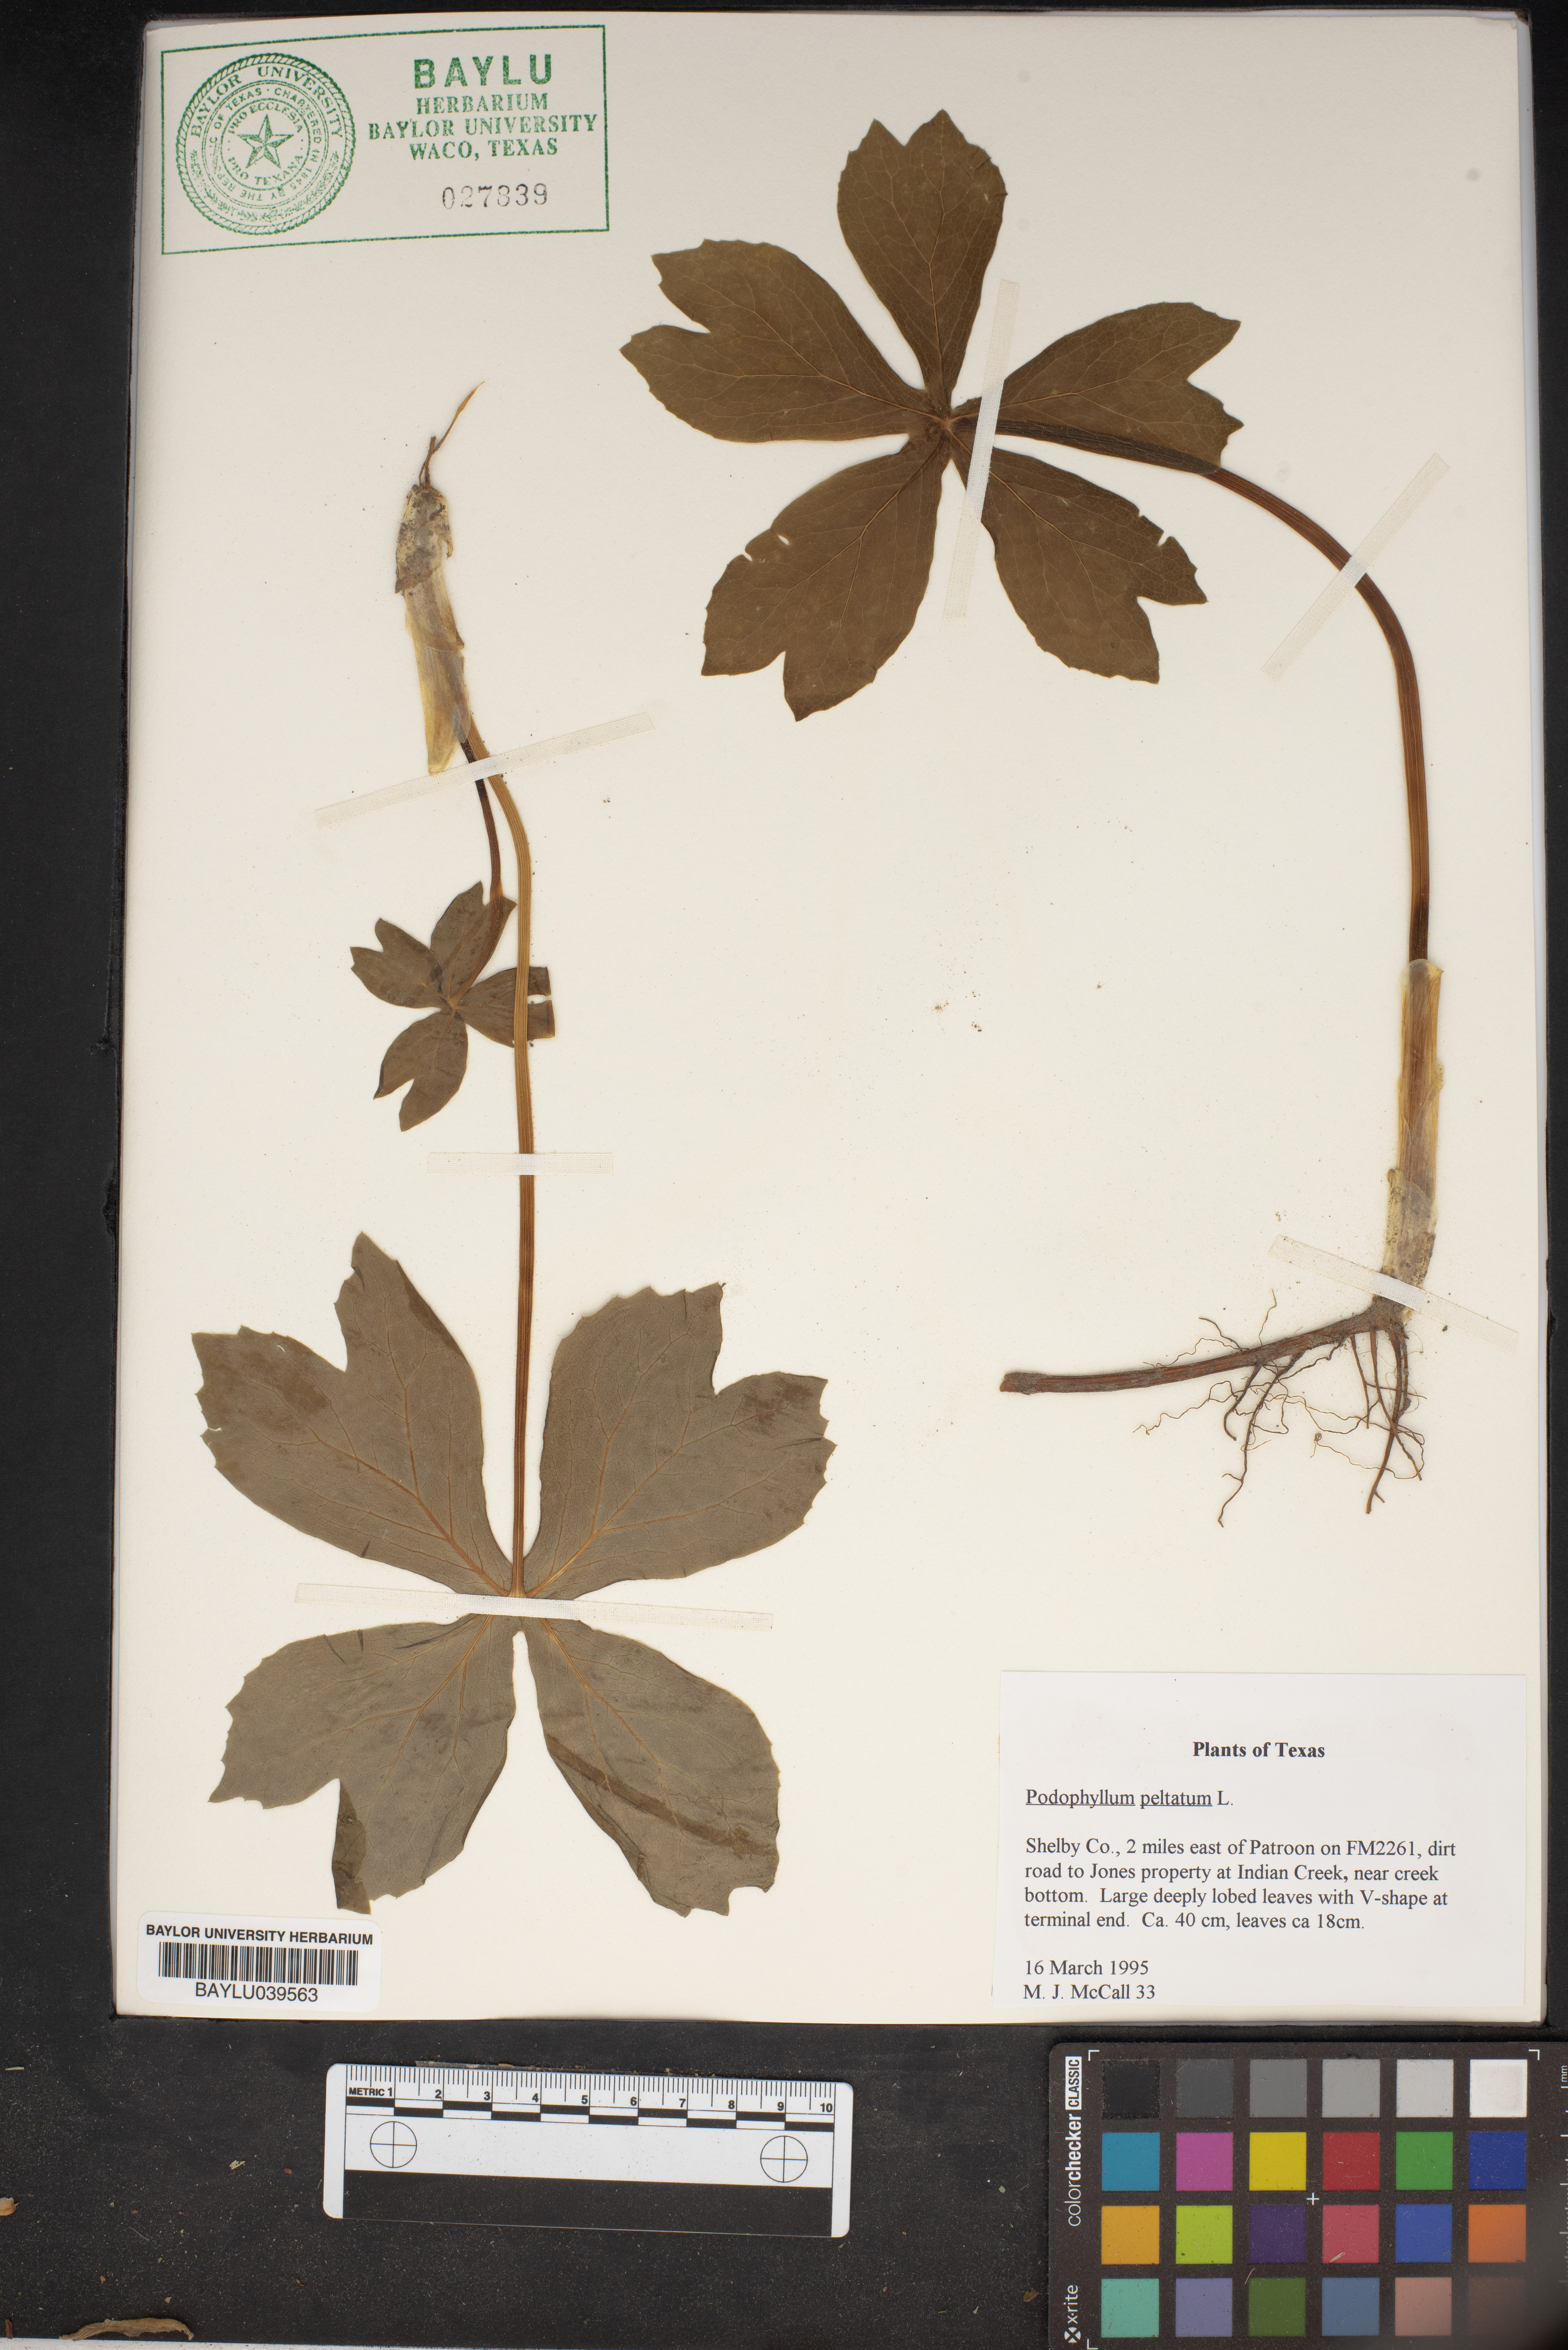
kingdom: Plantae
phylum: Tracheophyta
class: Magnoliopsida
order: Ranunculales
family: Berberidaceae
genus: Podophyllum
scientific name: Podophyllum peltatum
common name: Wild mandrake
